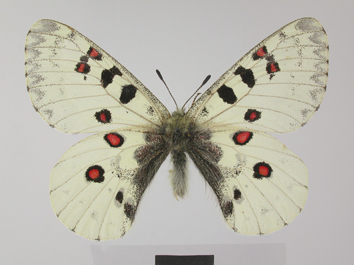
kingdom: Animalia
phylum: Arthropoda
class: Insecta
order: Lepidoptera
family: Papilionidae
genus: Parnassius
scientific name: Parnassius jacquemontii
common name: Keeled apollo
